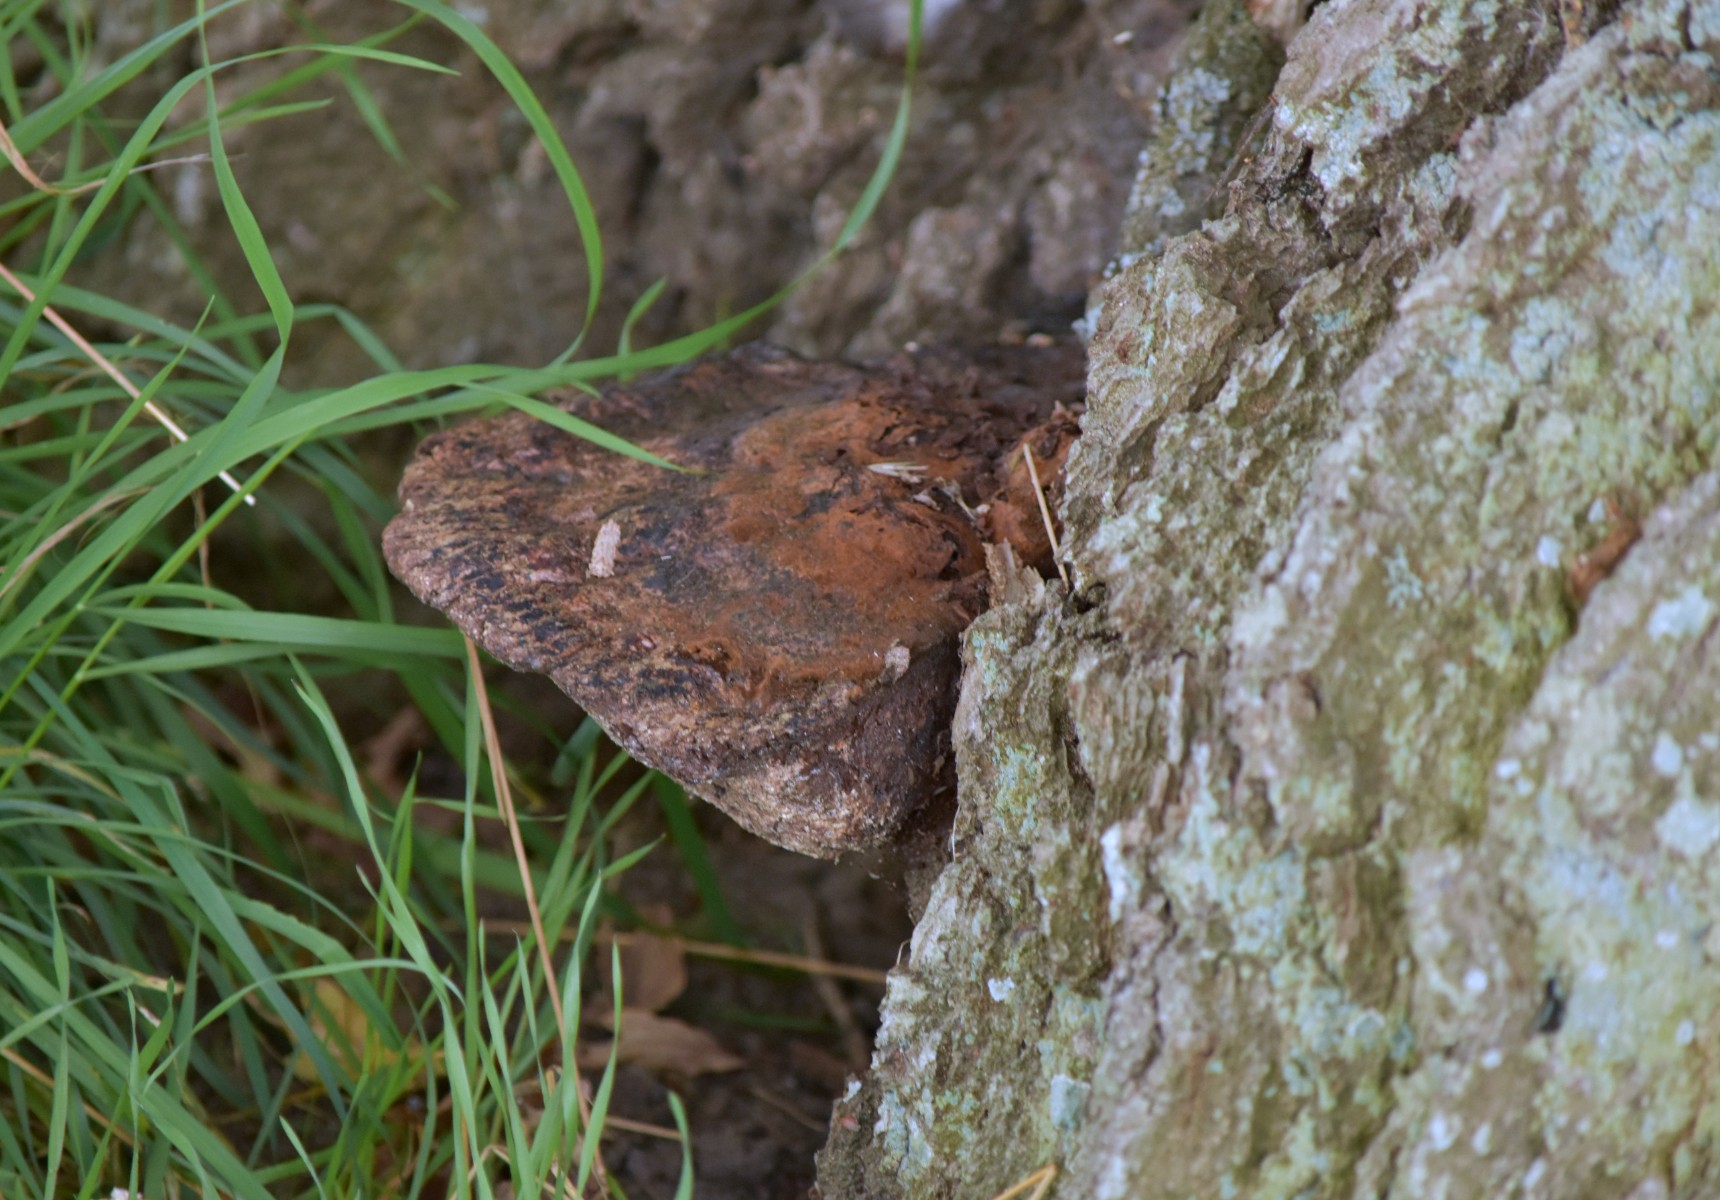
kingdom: Fungi
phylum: Basidiomycota
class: Agaricomycetes
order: Agaricales
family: Fistulinaceae
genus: Fistulina
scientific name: Fistulina hepatica
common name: oksetunge
